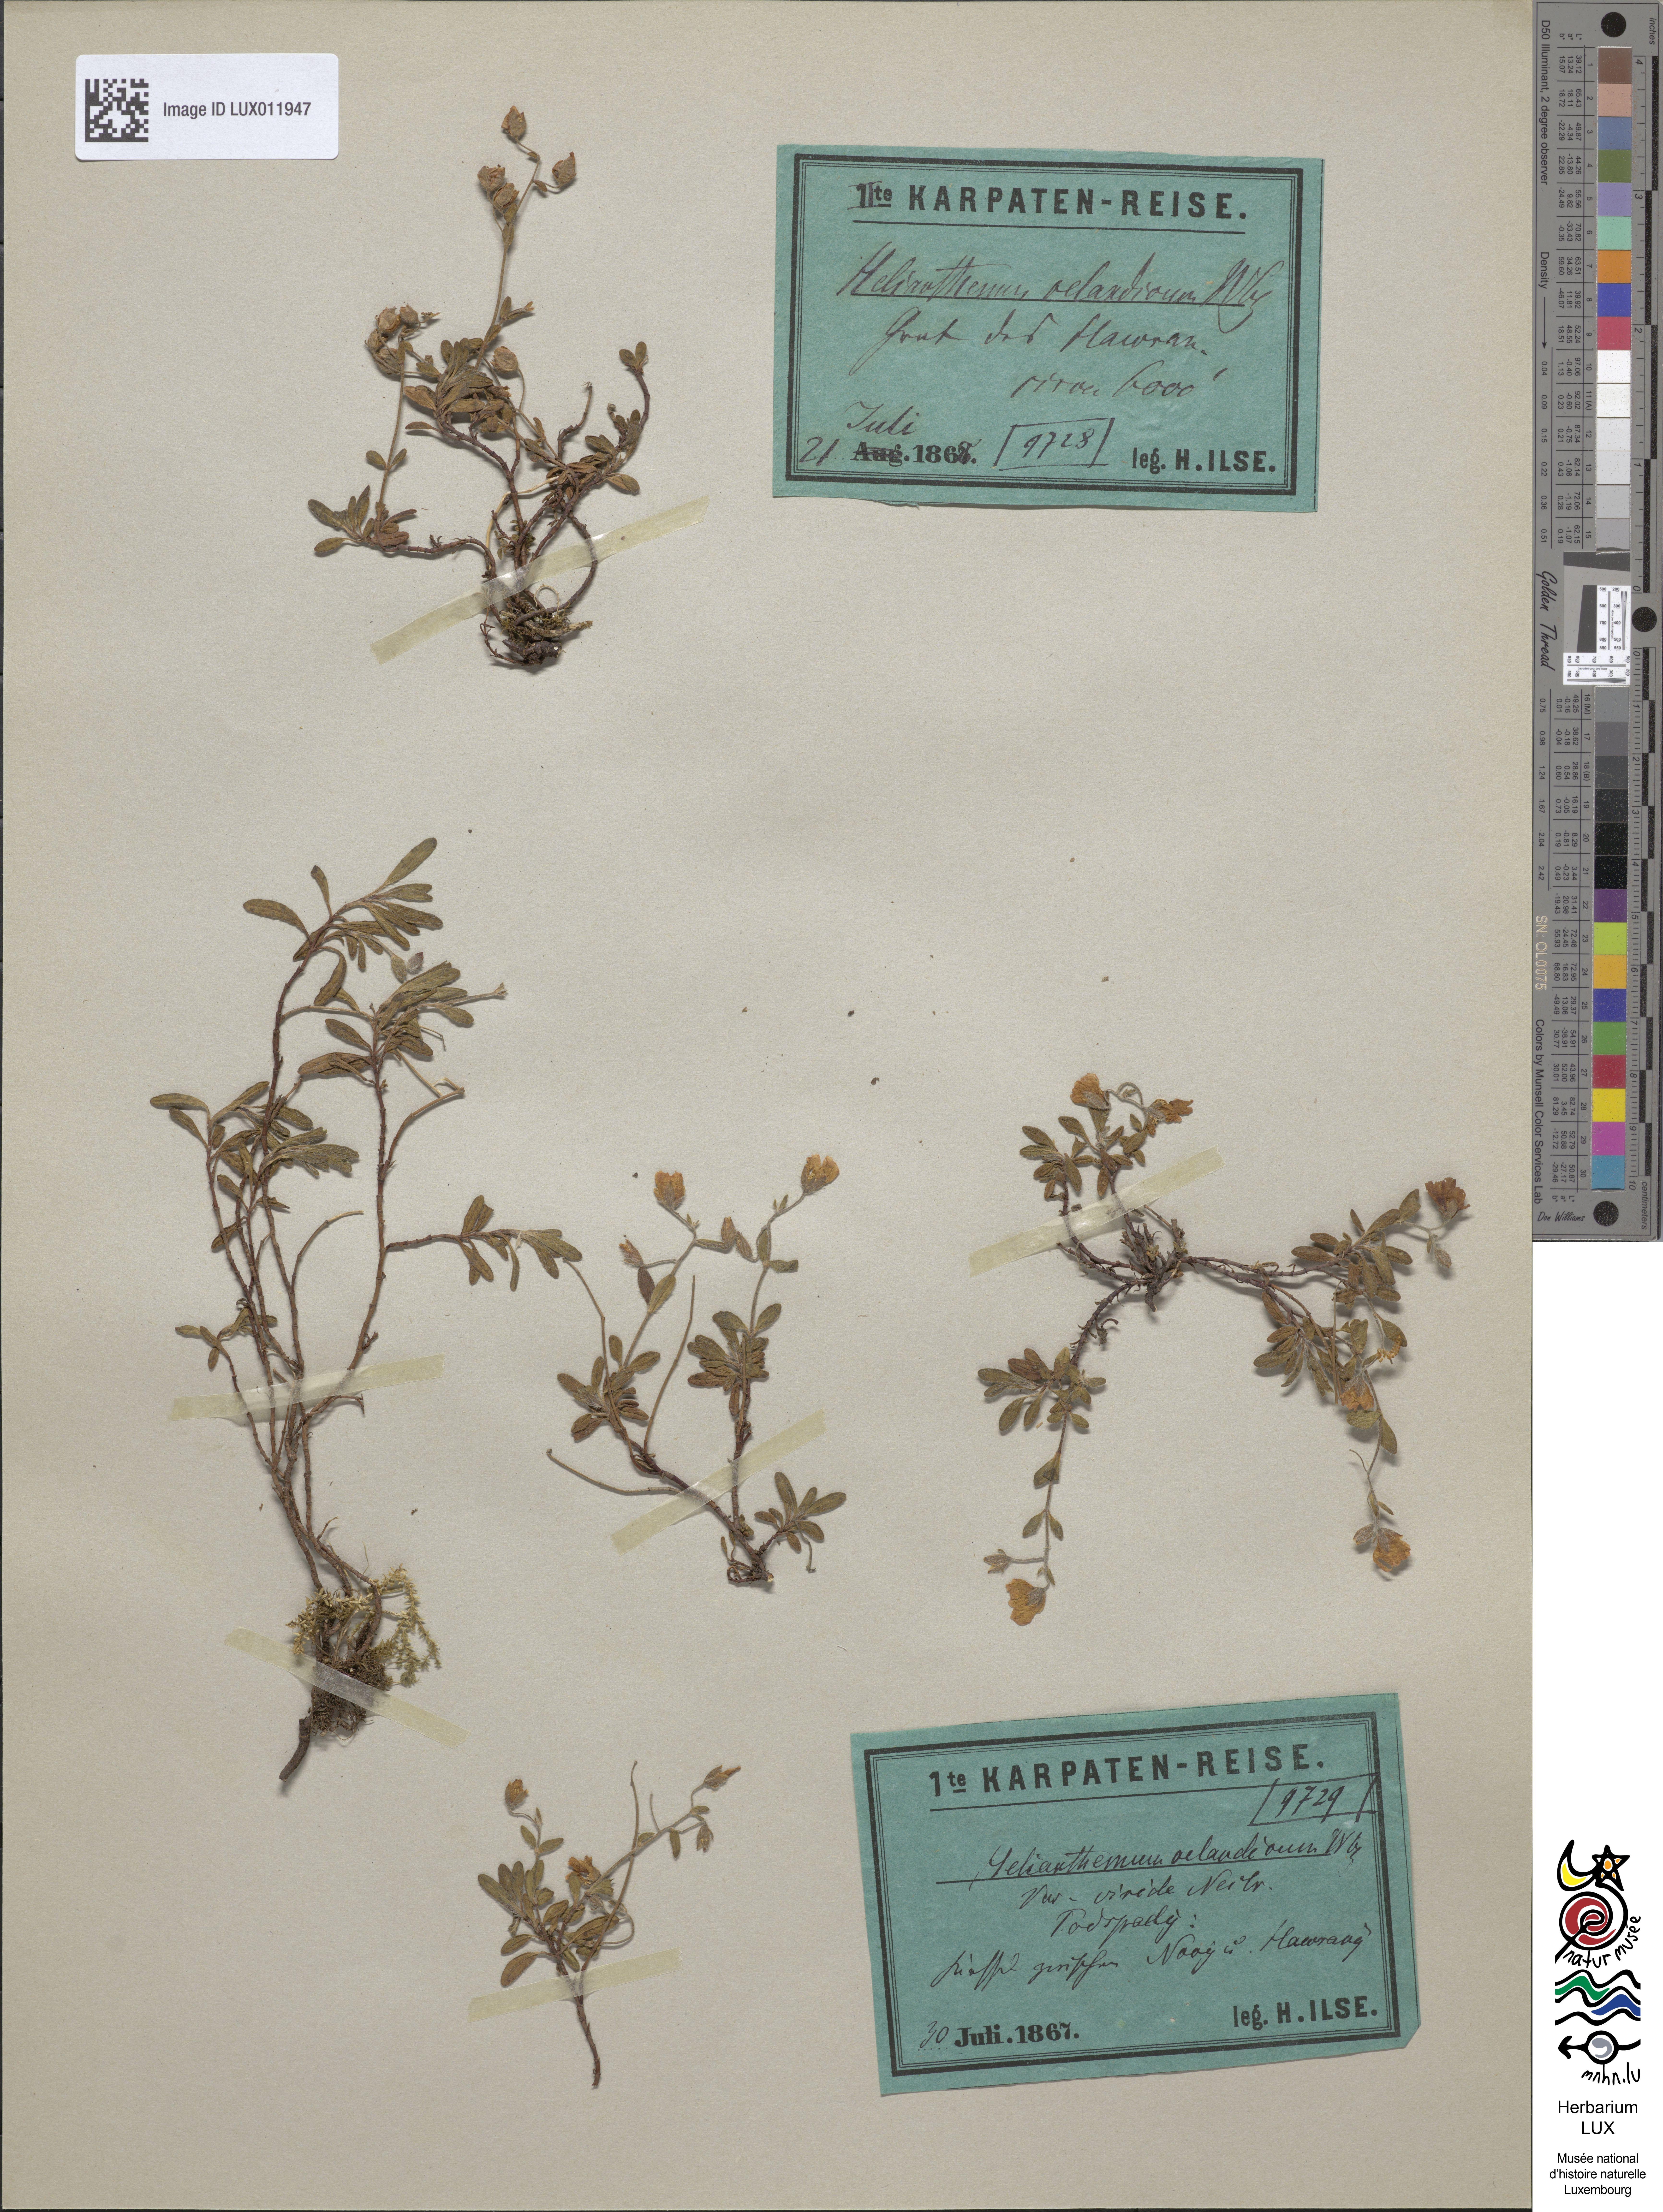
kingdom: Plantae
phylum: Tracheophyta
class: Magnoliopsida
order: Malvales
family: Cistaceae
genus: Helianthemum
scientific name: Helianthemum oelandicum
